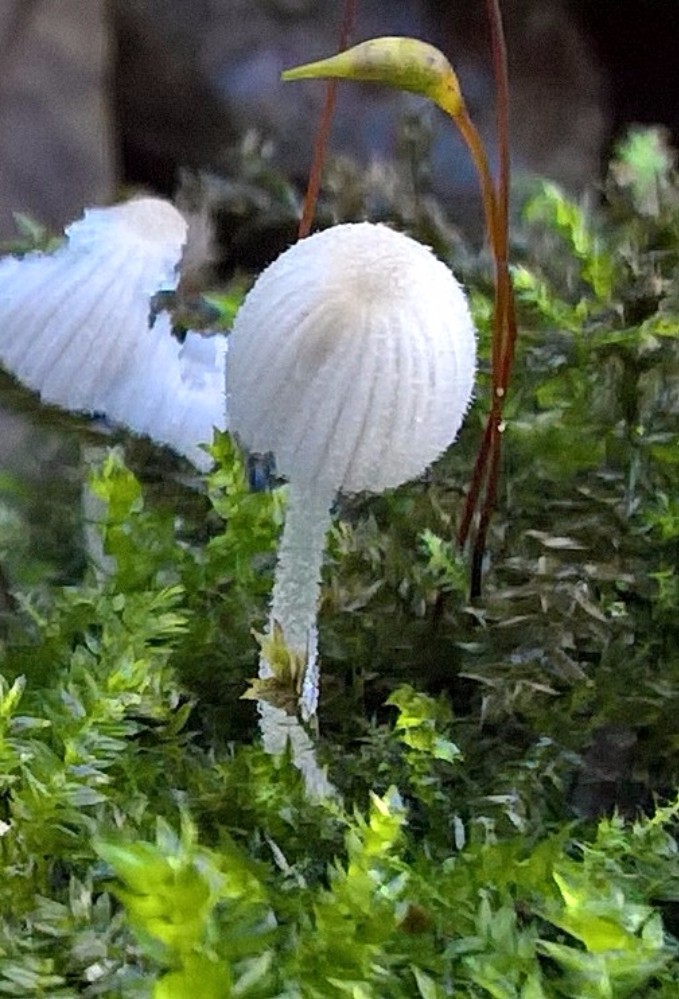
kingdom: Fungi
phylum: Basidiomycota
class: Agaricomycetes
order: Agaricales
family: Psathyrellaceae
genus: Coprinellus
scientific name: Coprinellus disseminatus
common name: bredsået blækhat
